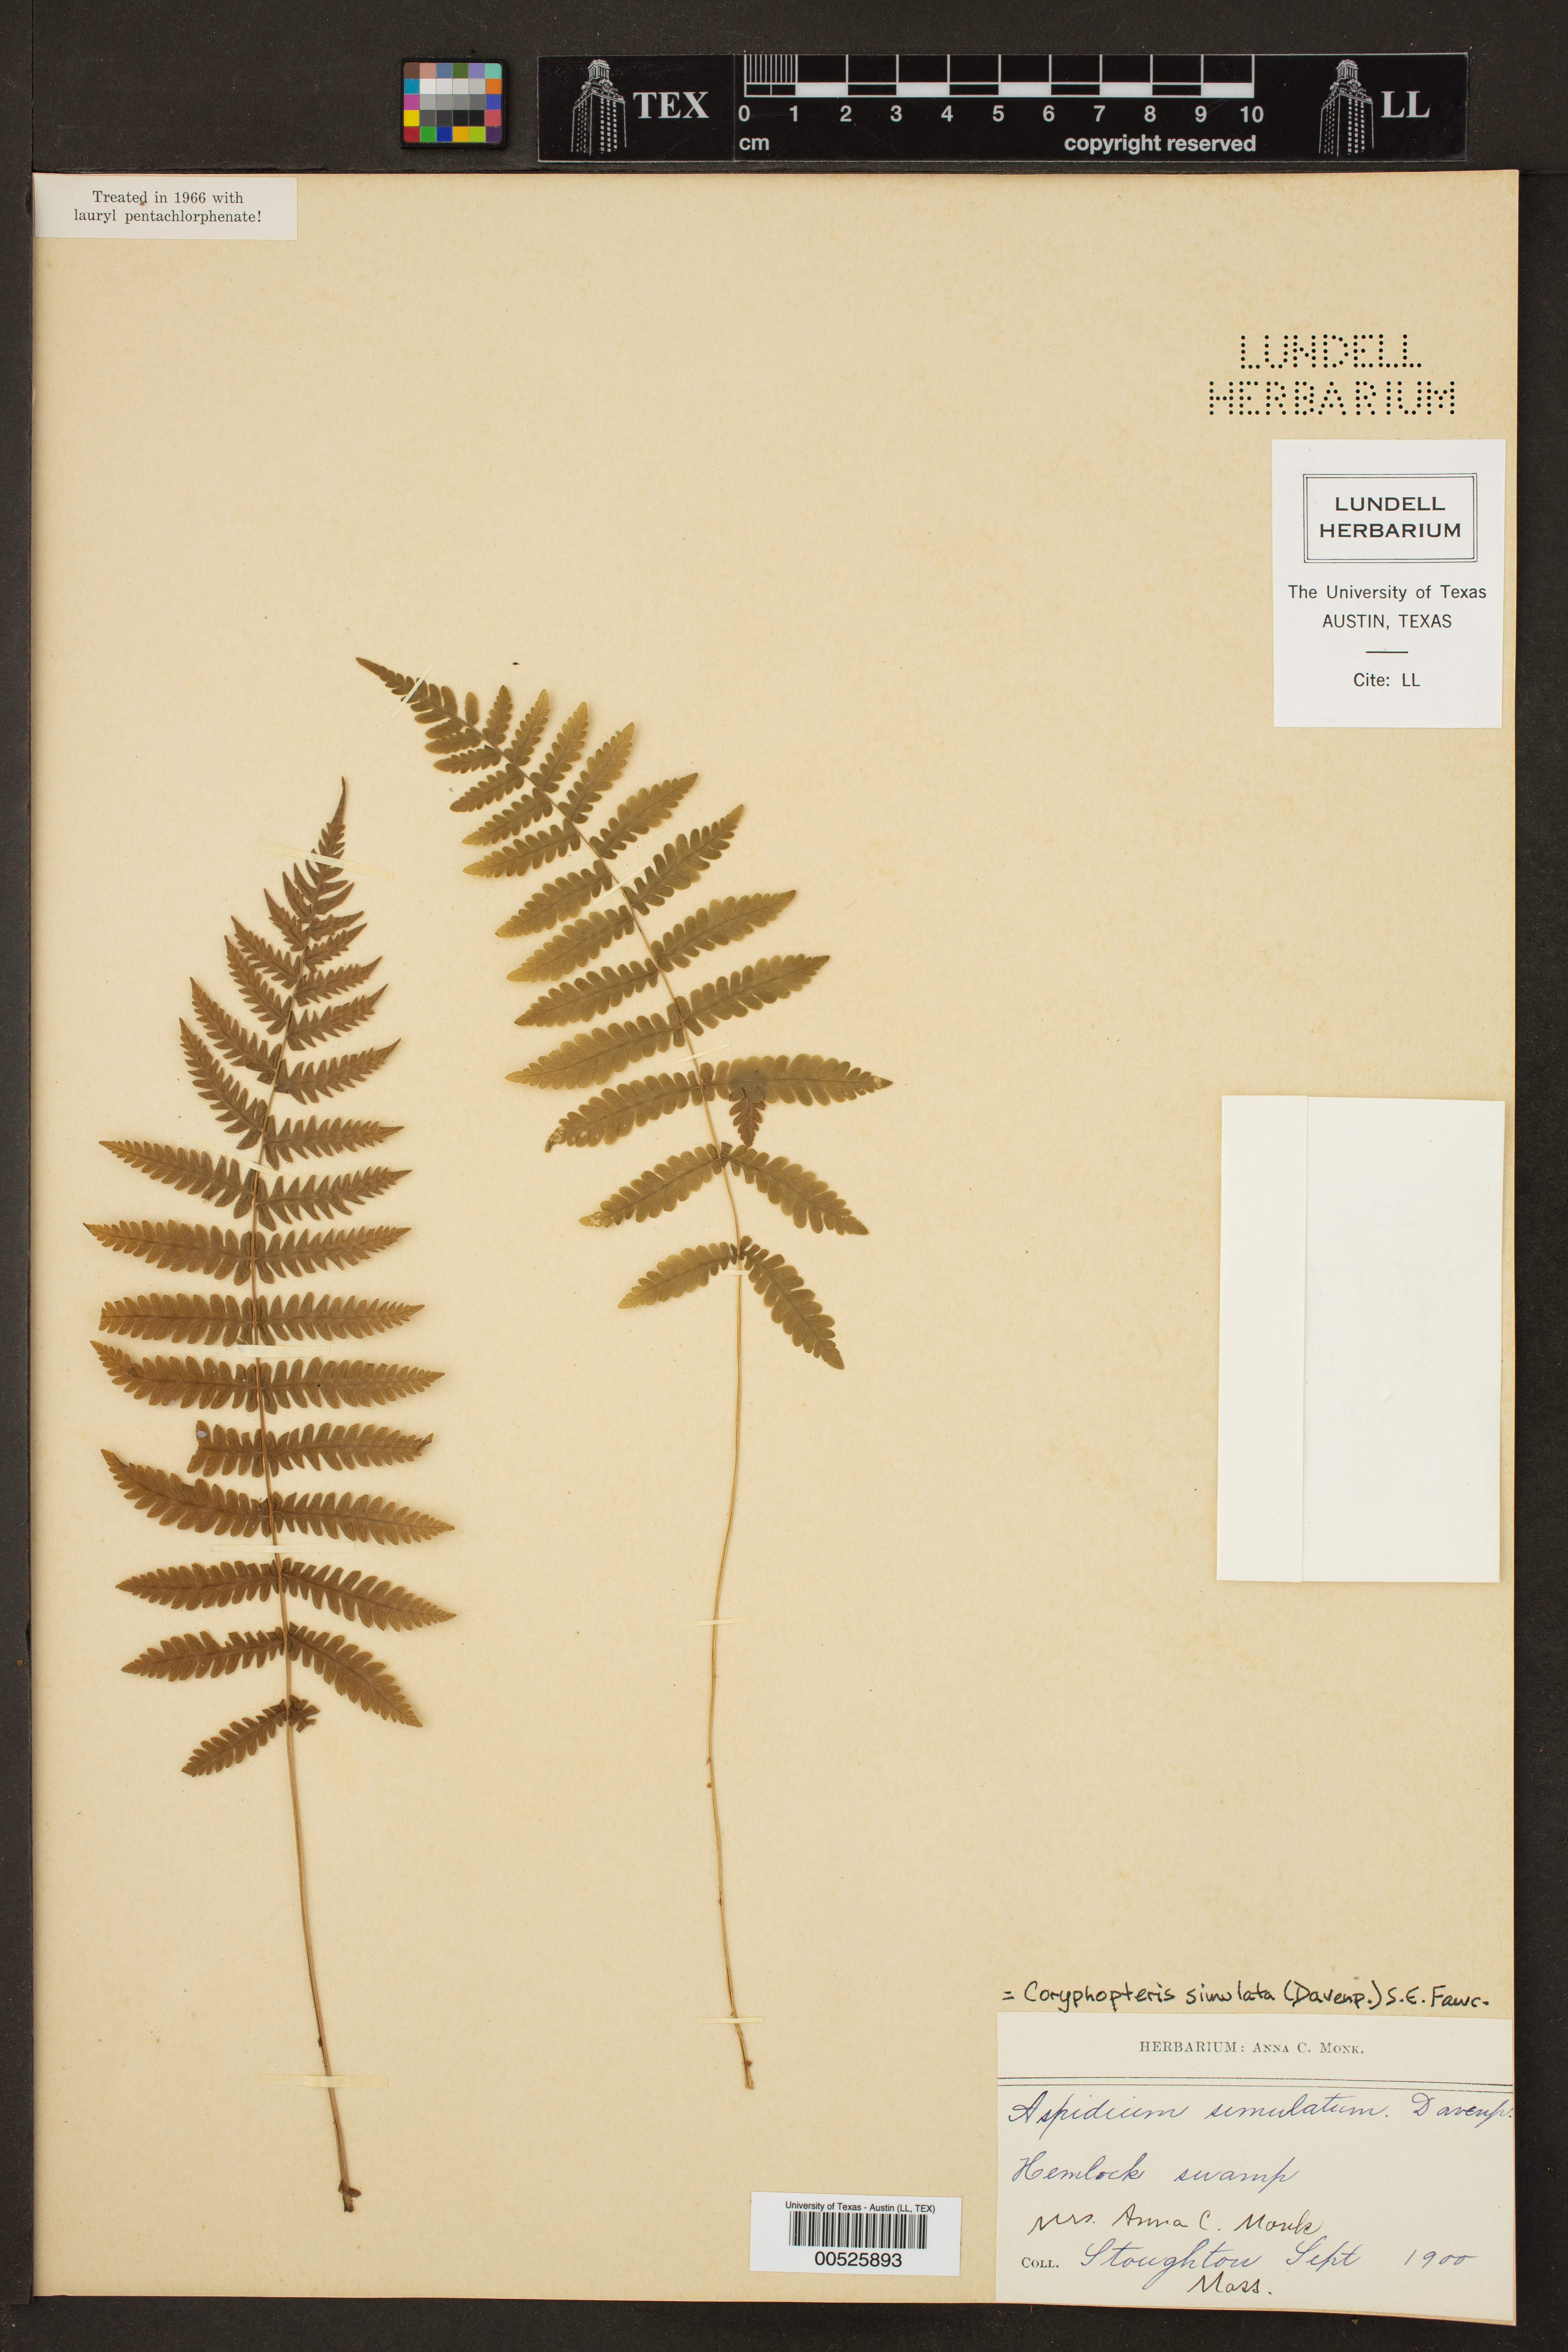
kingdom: Plantae
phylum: Tracheophyta
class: Polypodiopsida
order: Polypodiales
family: Thelypteridaceae
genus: Coryphopteris
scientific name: Coryphopteris simulata
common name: Bog fern
